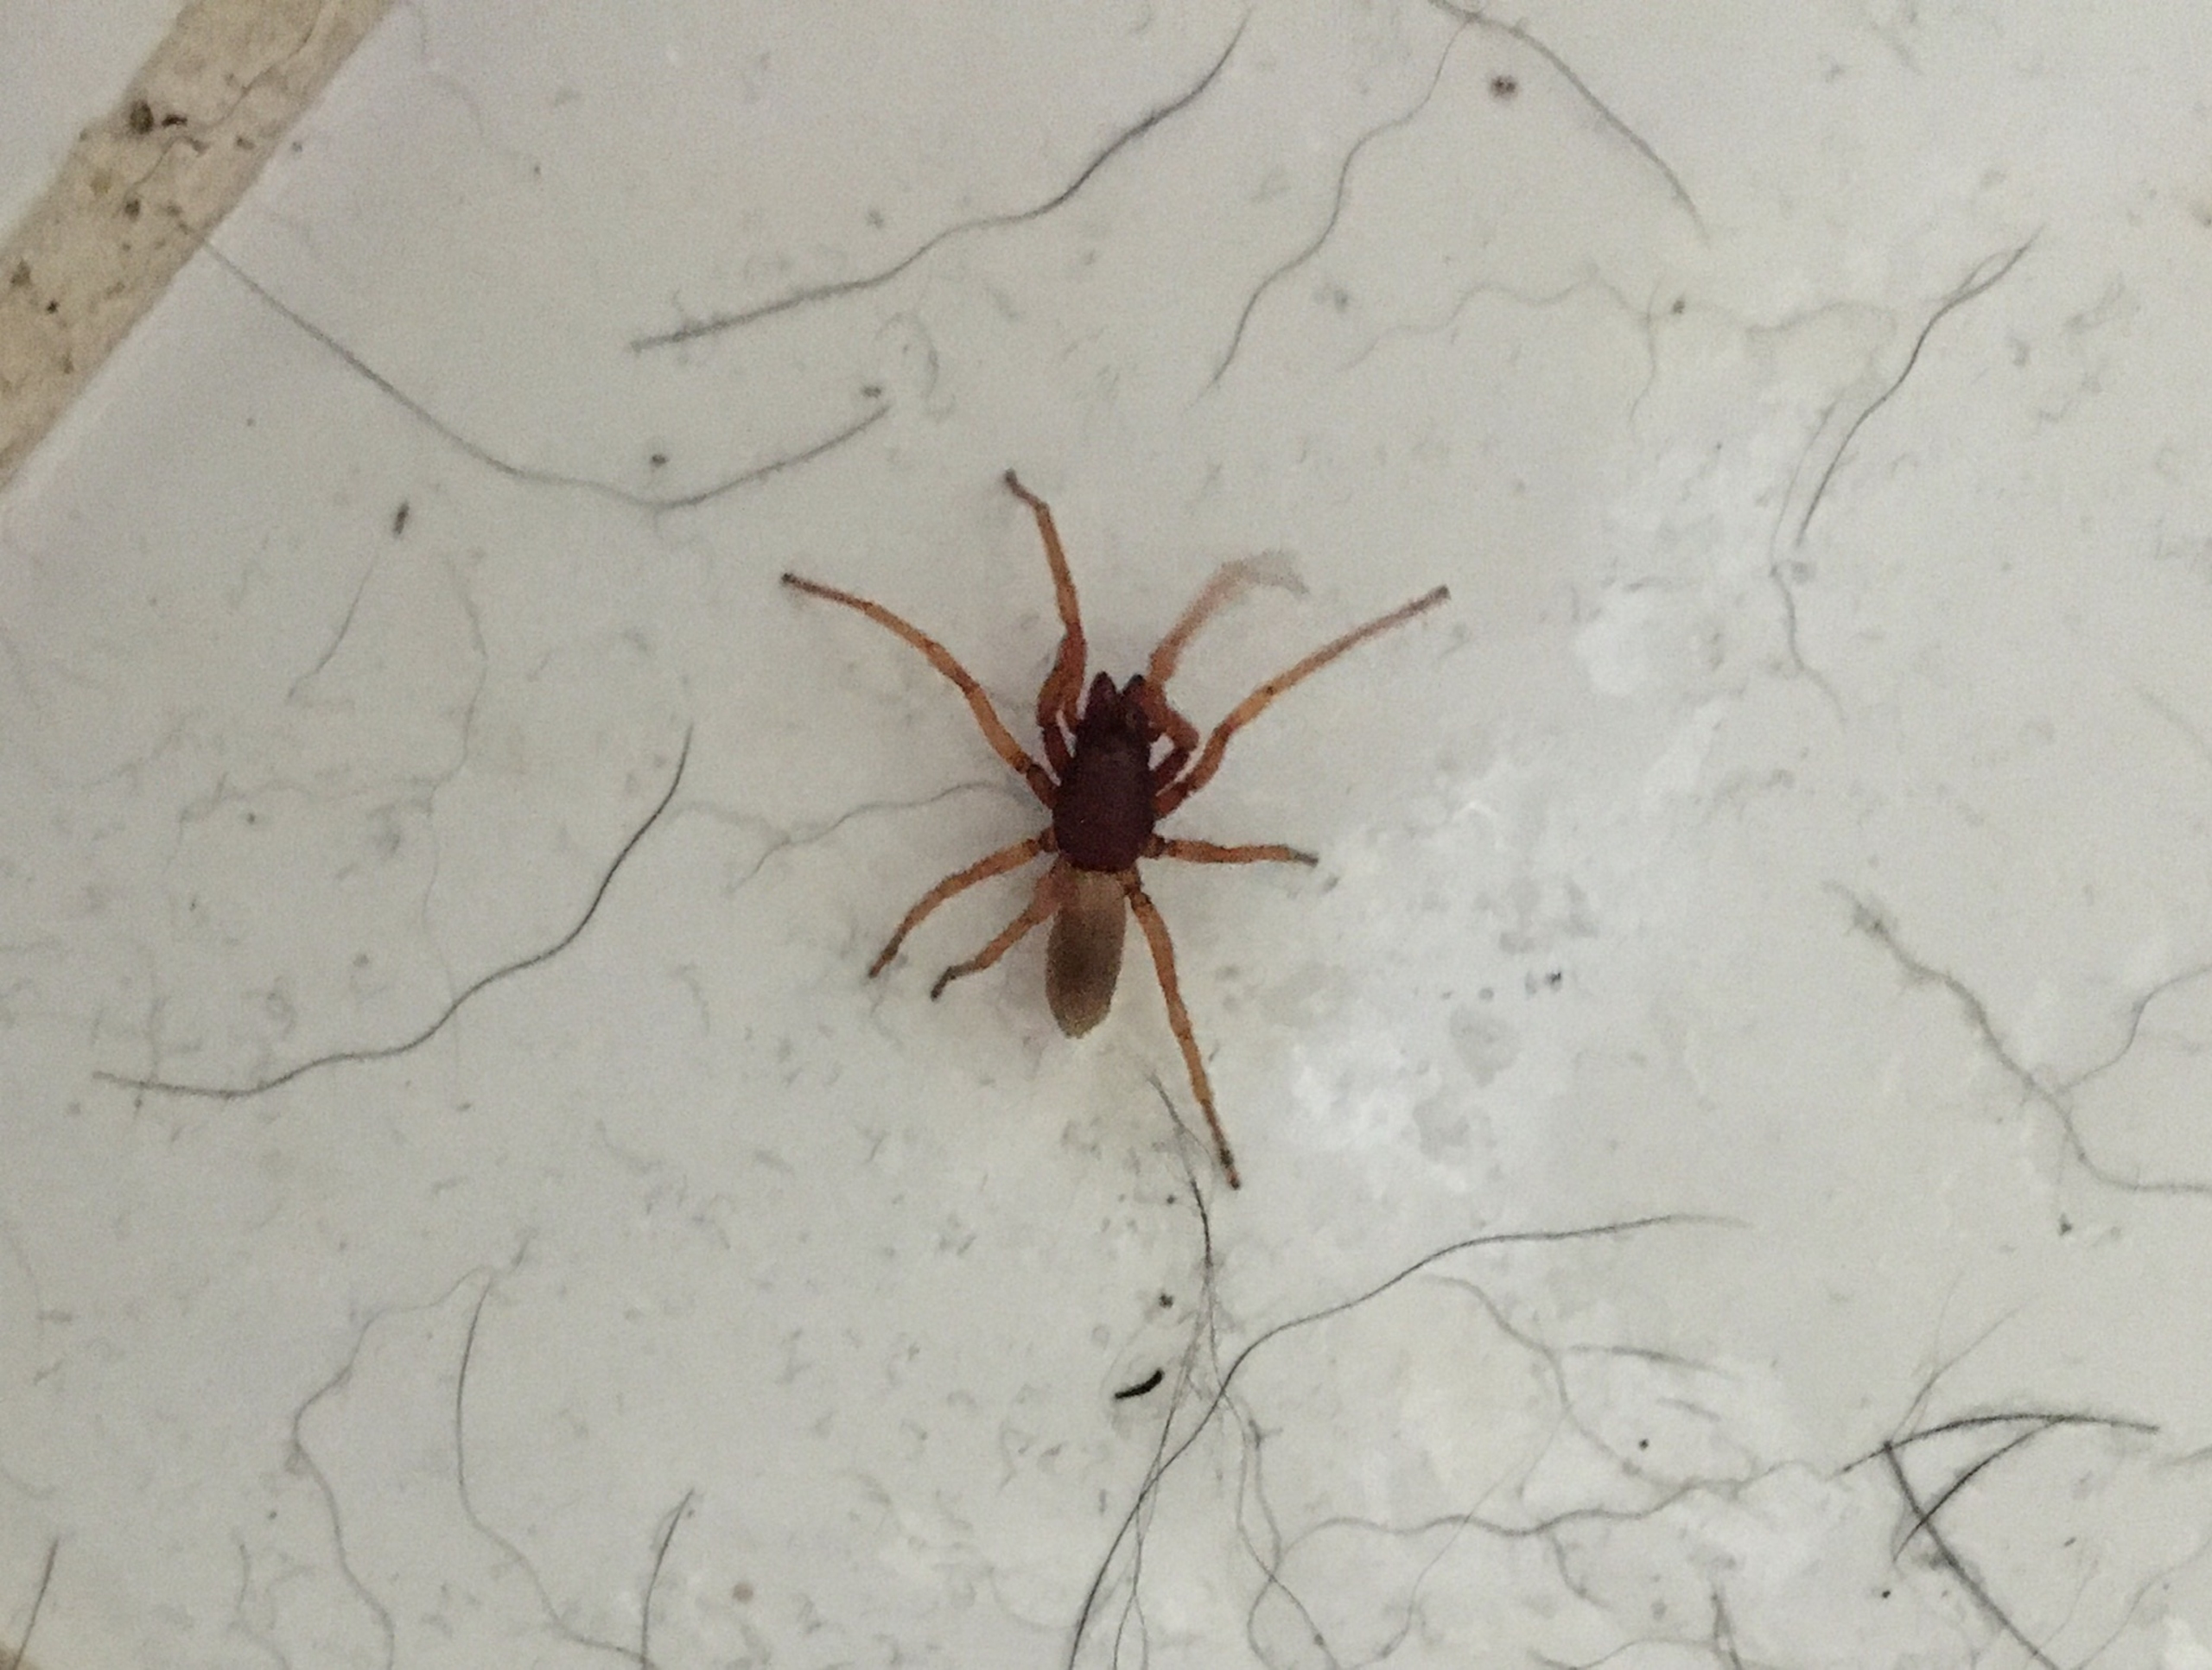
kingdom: Animalia
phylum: Arthropoda
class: Arachnida
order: Araneae
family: Dysderidae
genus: Dysdera
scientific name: Dysdera crocata
